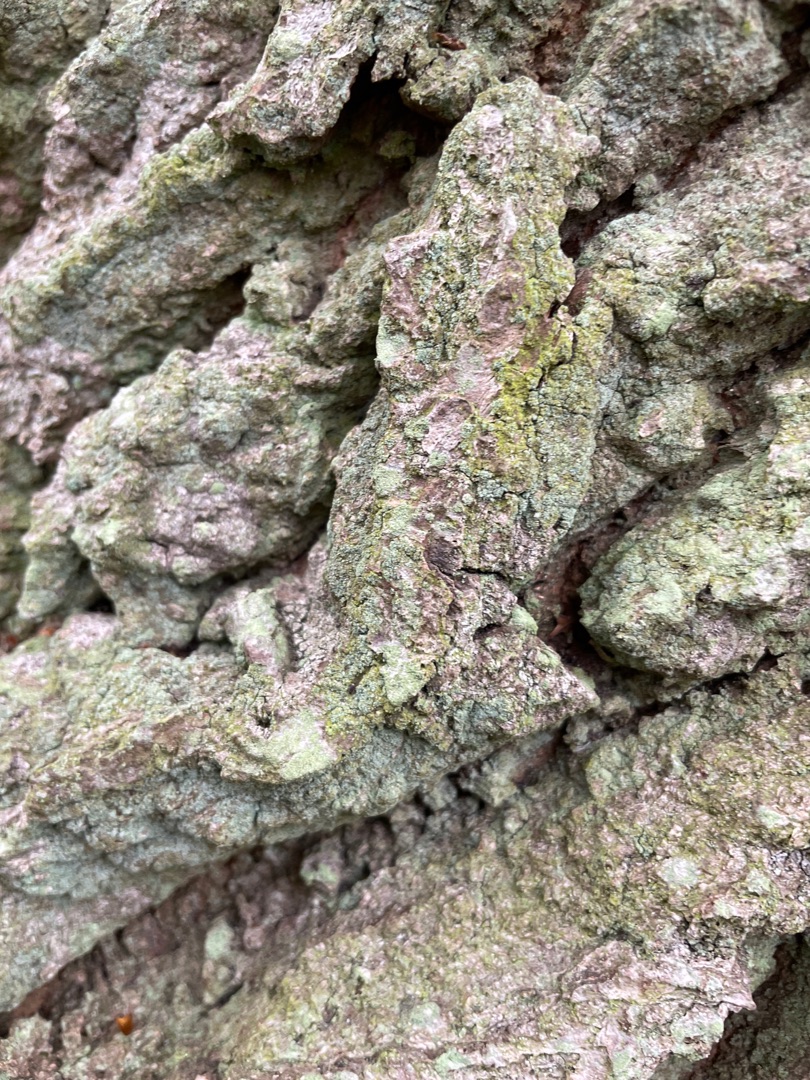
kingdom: Fungi
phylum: Ascomycota
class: Lecanoromycetes
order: Lecanorales
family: Stereocaulaceae
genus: Lepraria
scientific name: Lepraria
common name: Støvlav
